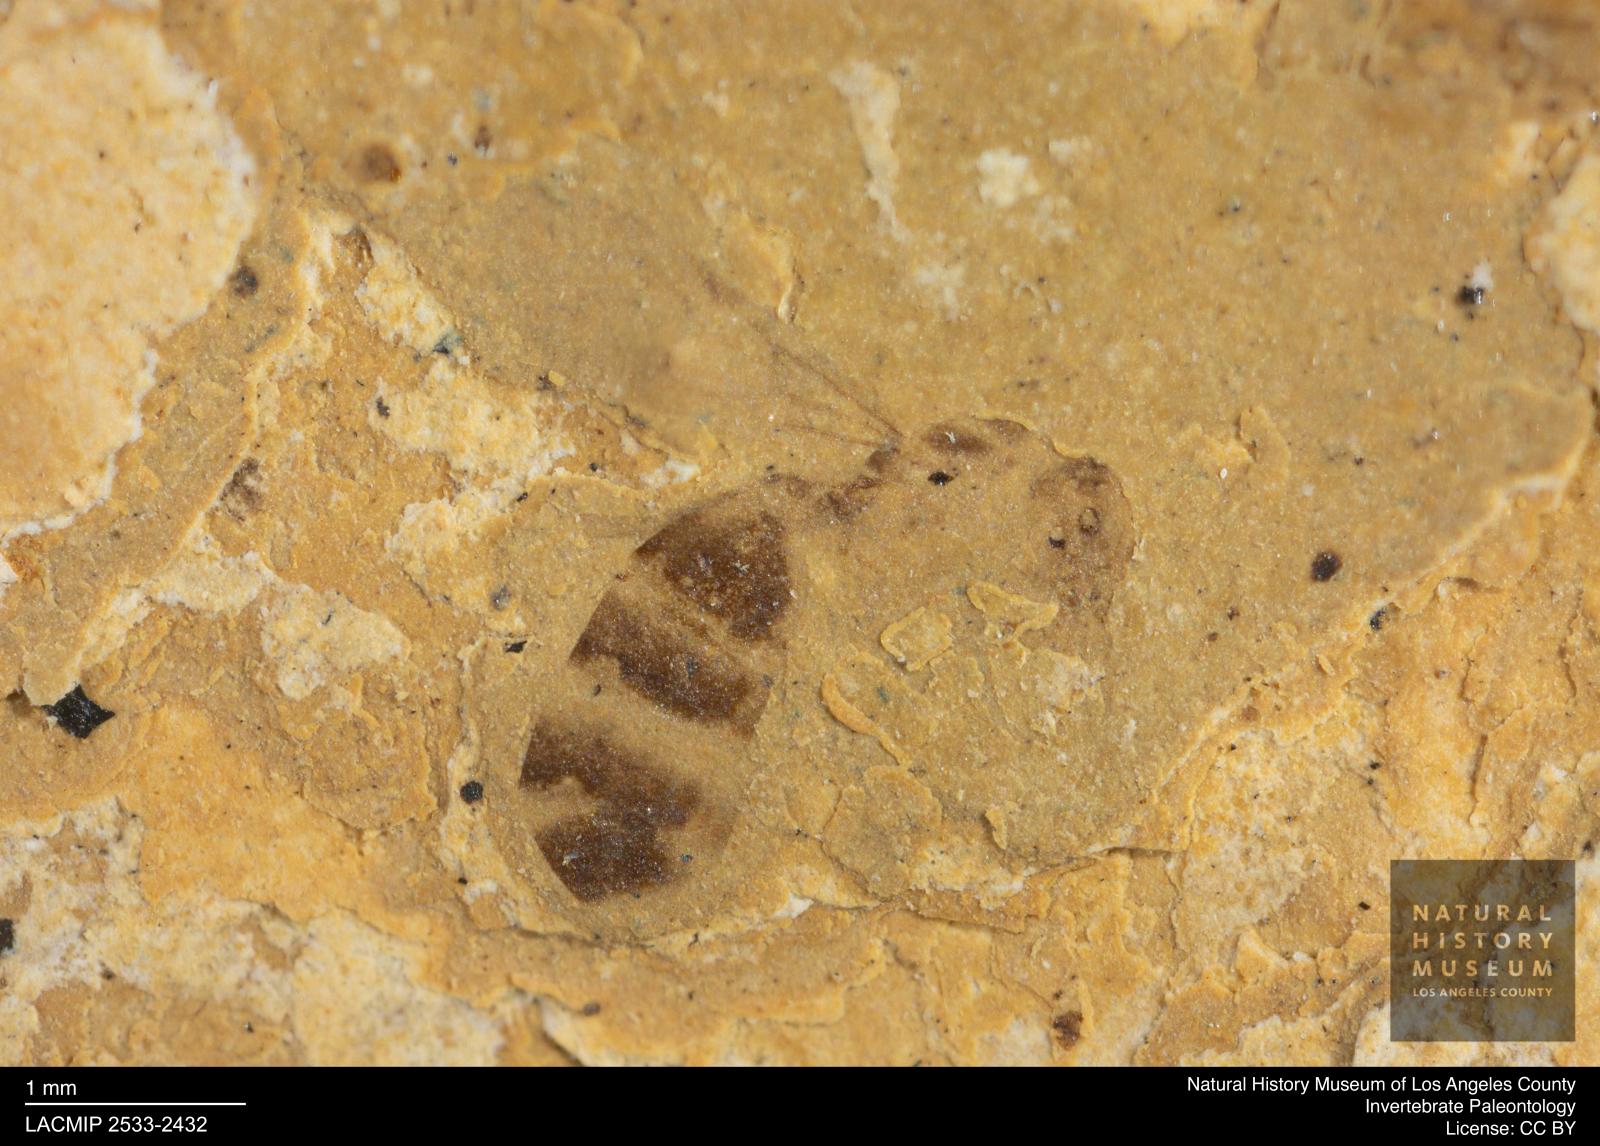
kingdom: Animalia
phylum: Arthropoda
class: Insecta
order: Hymenoptera
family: Formicidae
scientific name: Formicidae
